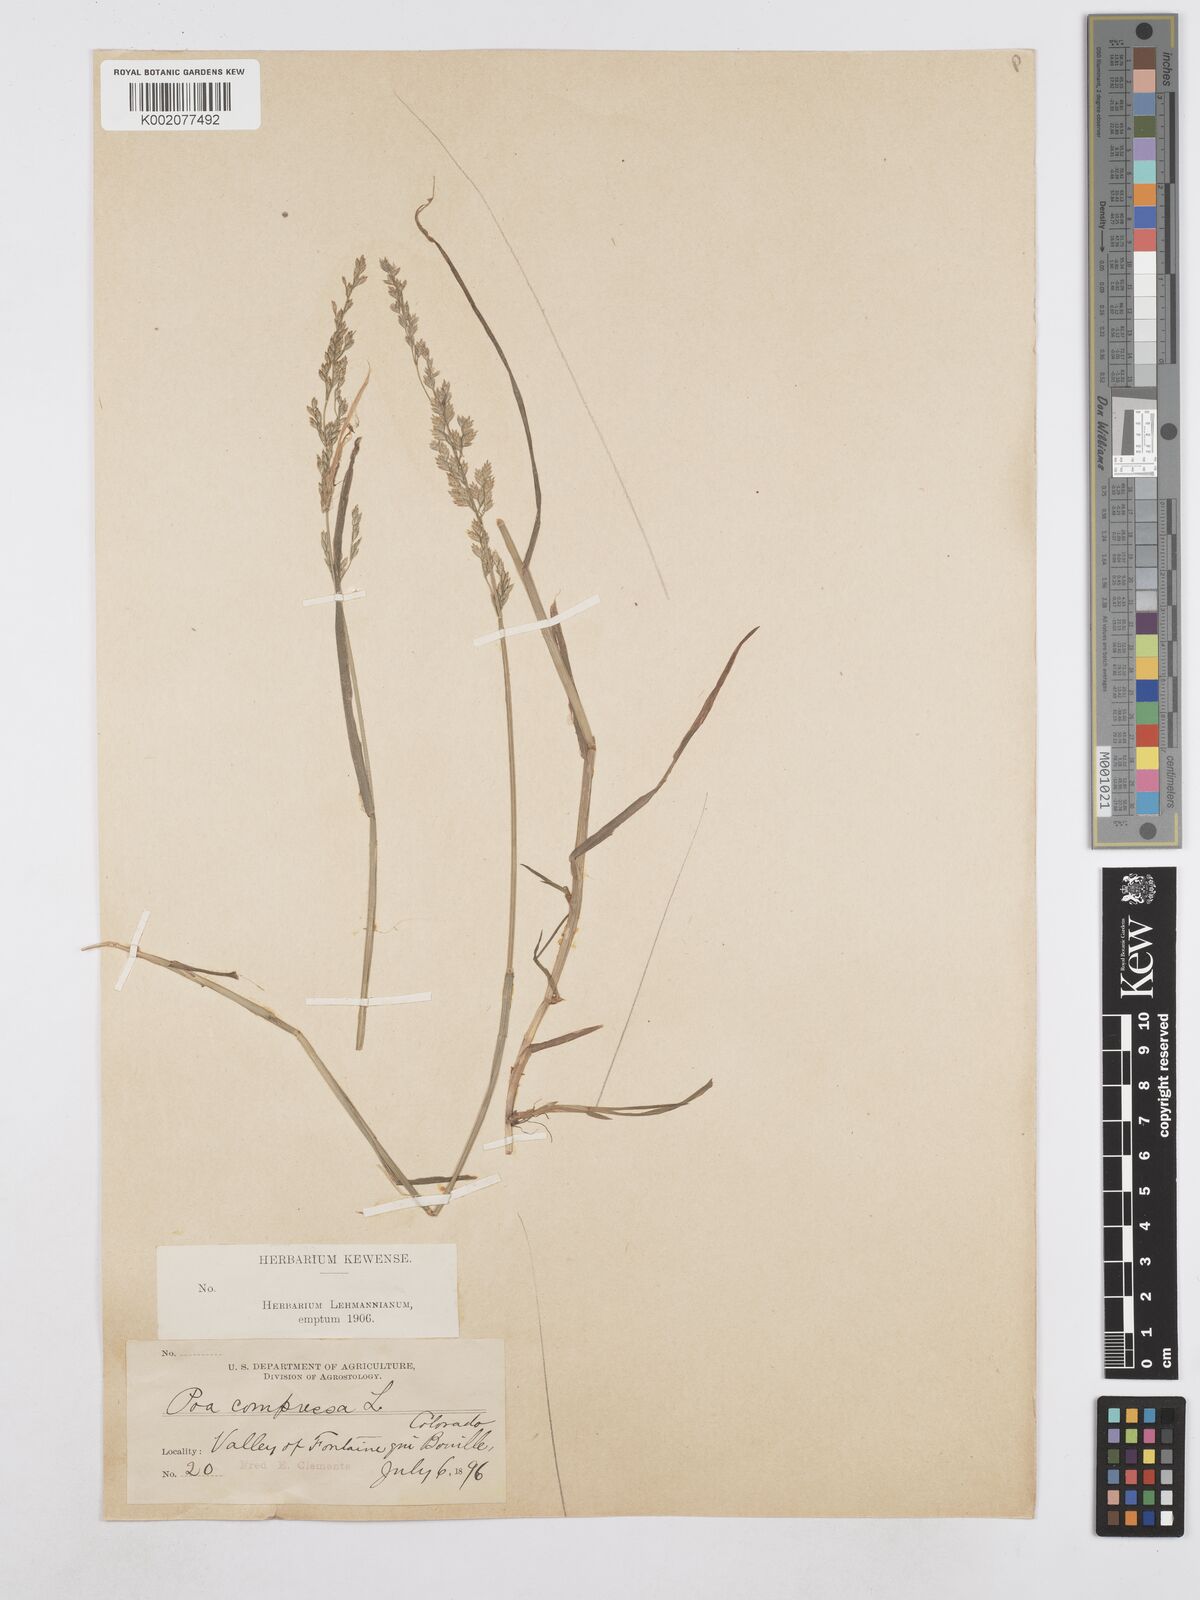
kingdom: Plantae
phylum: Tracheophyta
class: Liliopsida
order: Poales
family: Poaceae
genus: Poa
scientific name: Poa compressa
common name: Canada bluegrass
